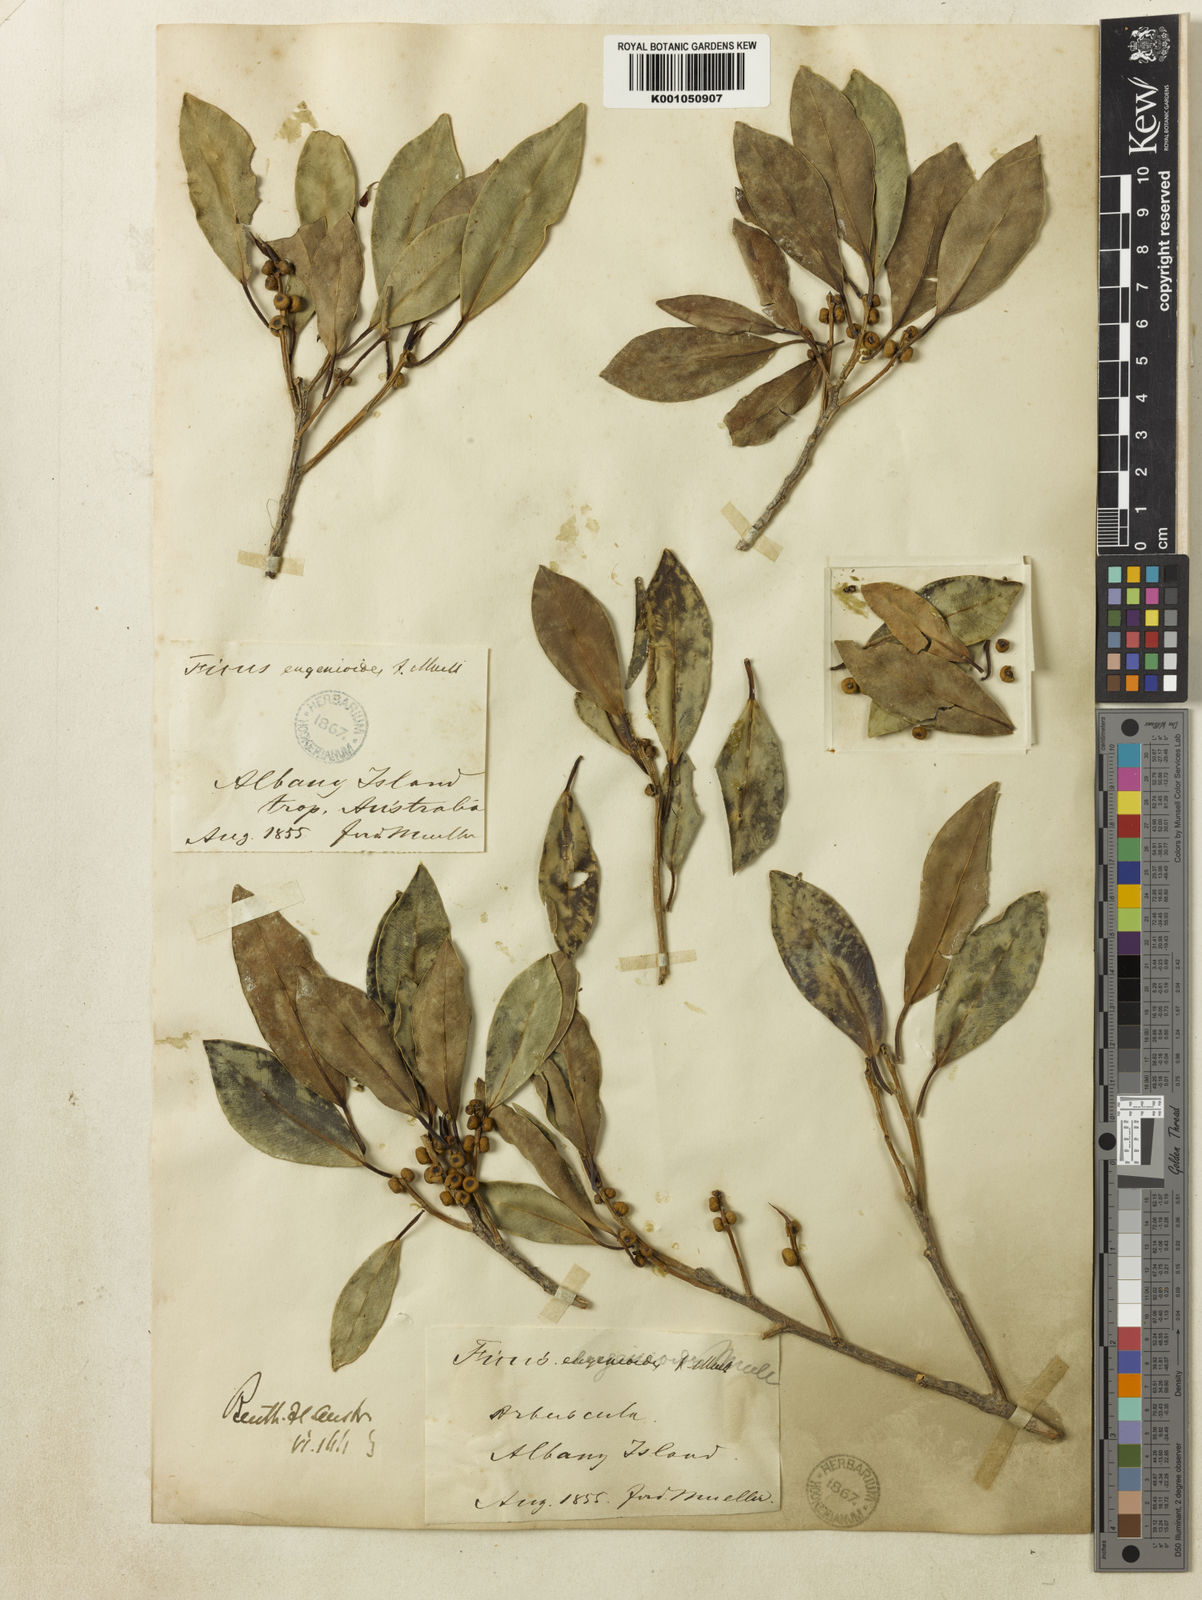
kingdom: Plantae
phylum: Tracheophyta
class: Magnoliopsida
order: Rosales
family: Moraceae
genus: Ficus
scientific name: Ficus obliqua
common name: Small-leaf fig
